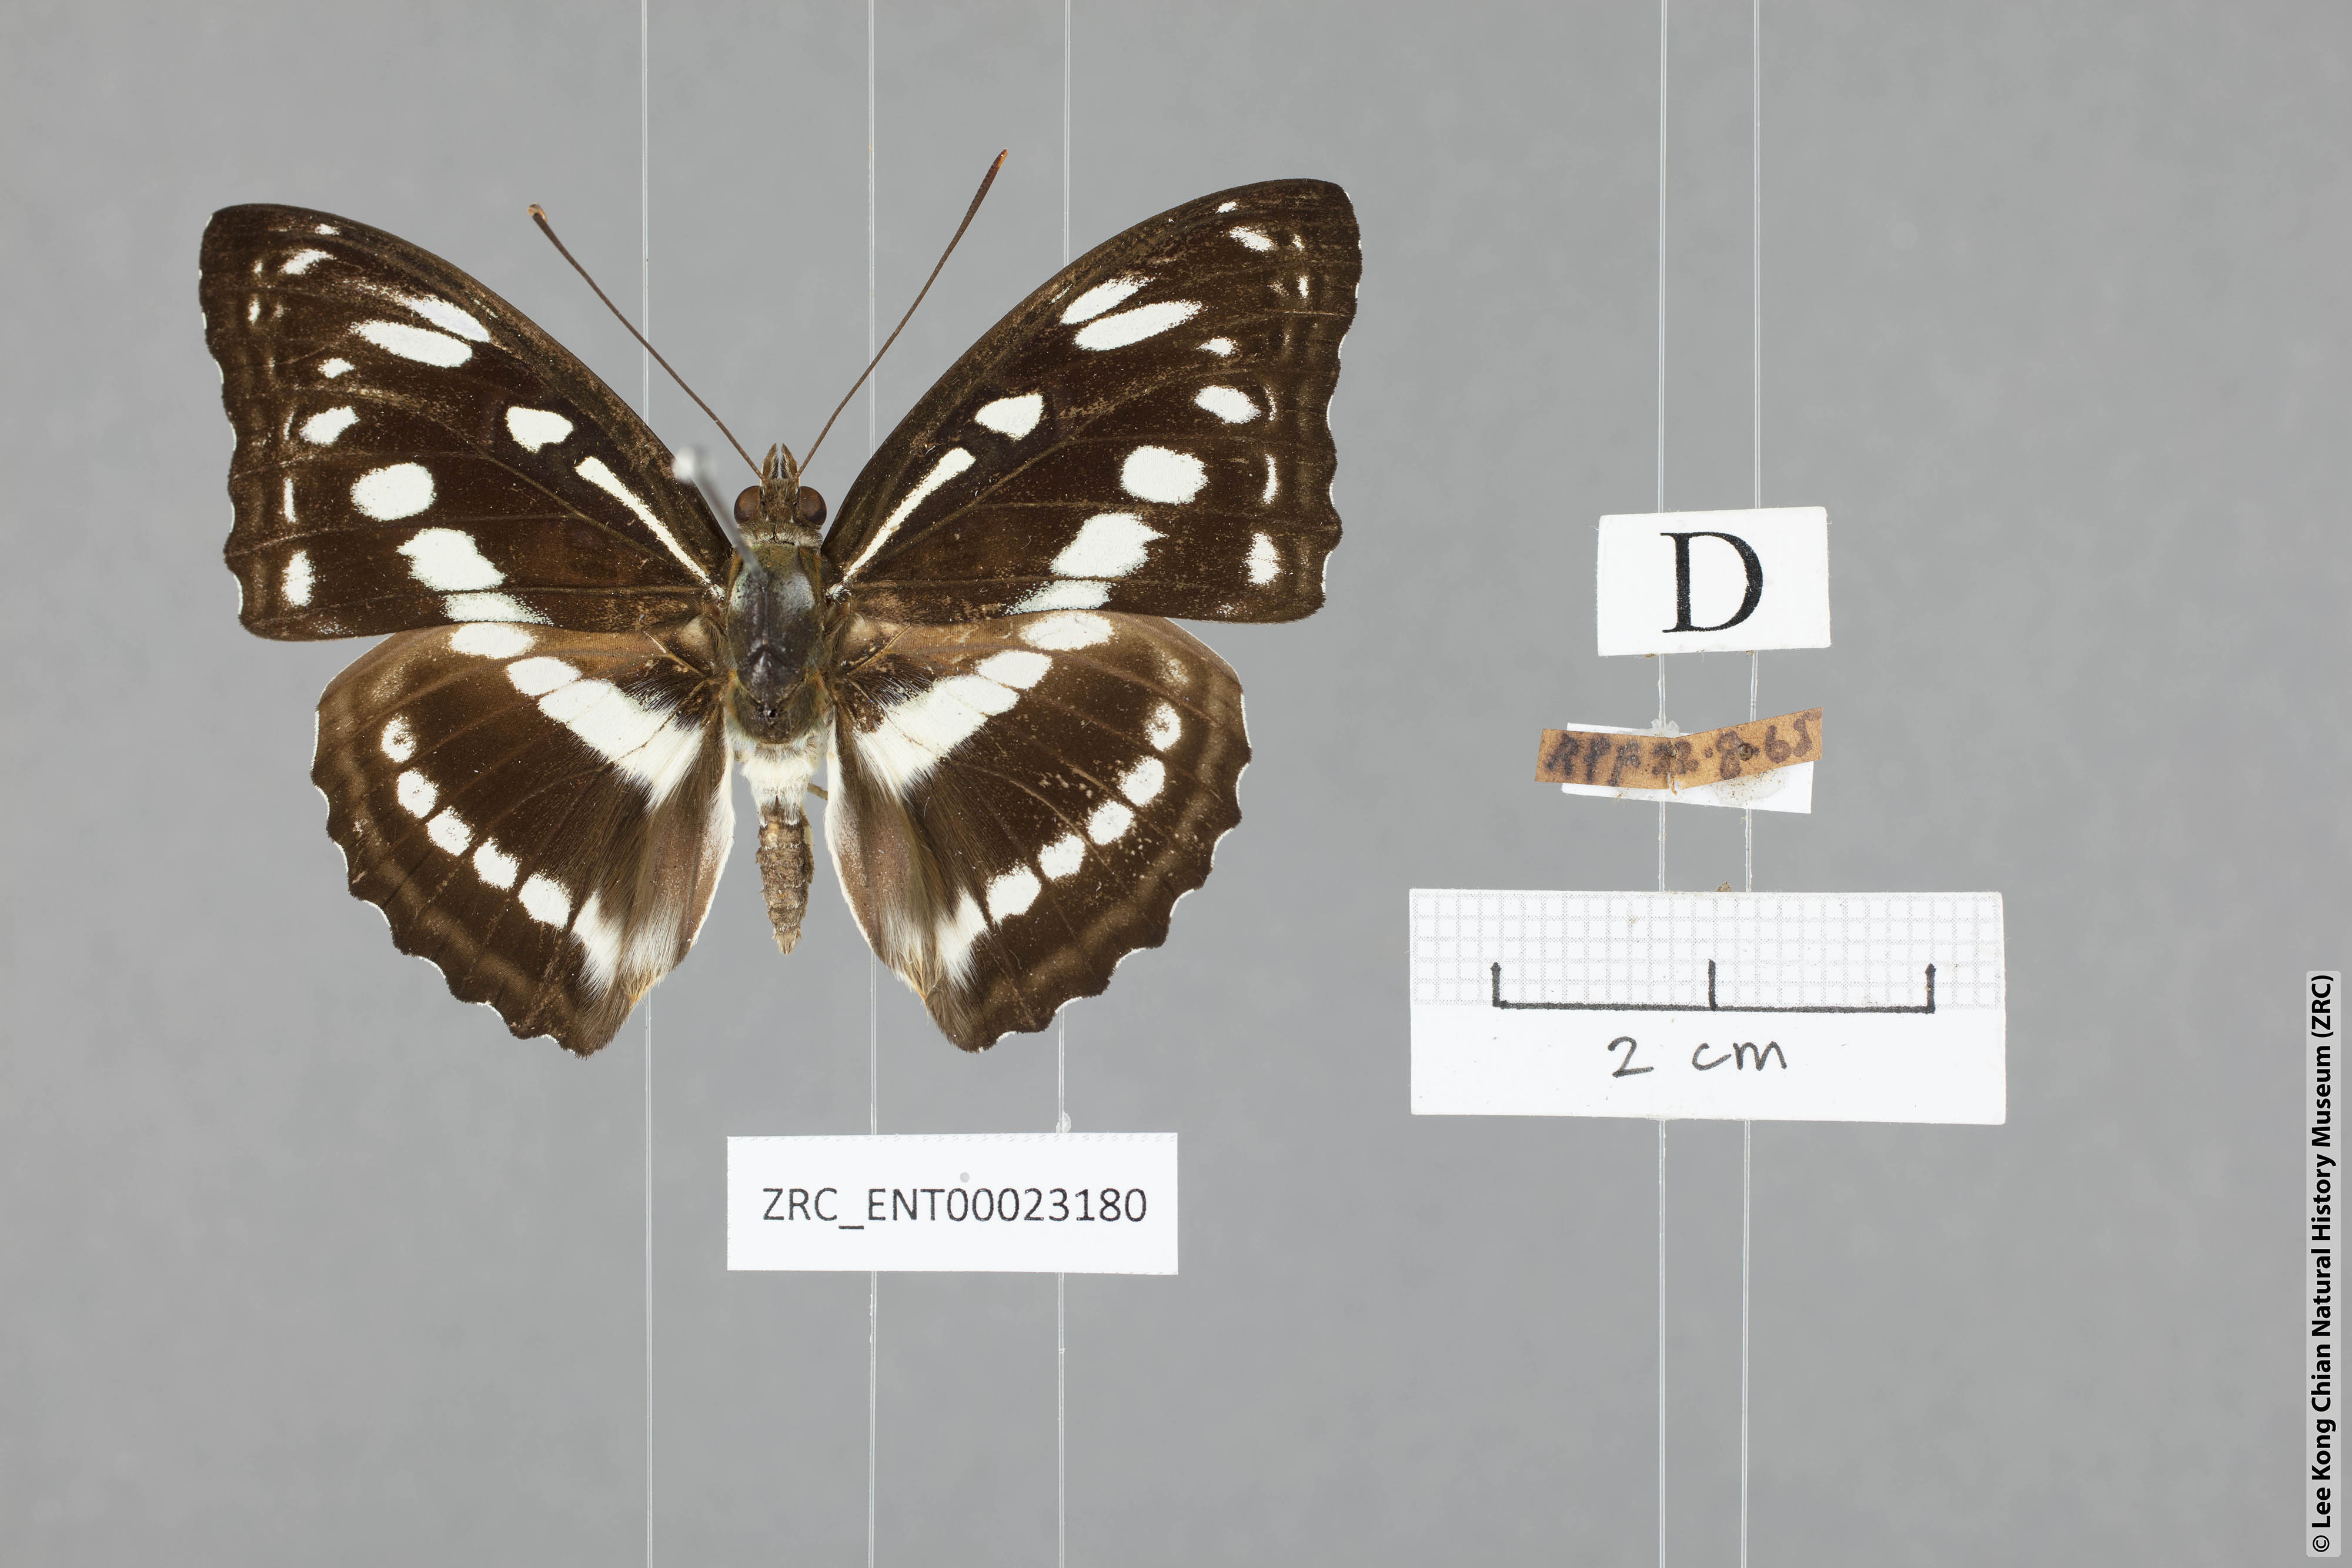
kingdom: Animalia
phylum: Arthropoda
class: Insecta
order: Lepidoptera
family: Nymphalidae
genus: Parathyma
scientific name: Parathyma asura
